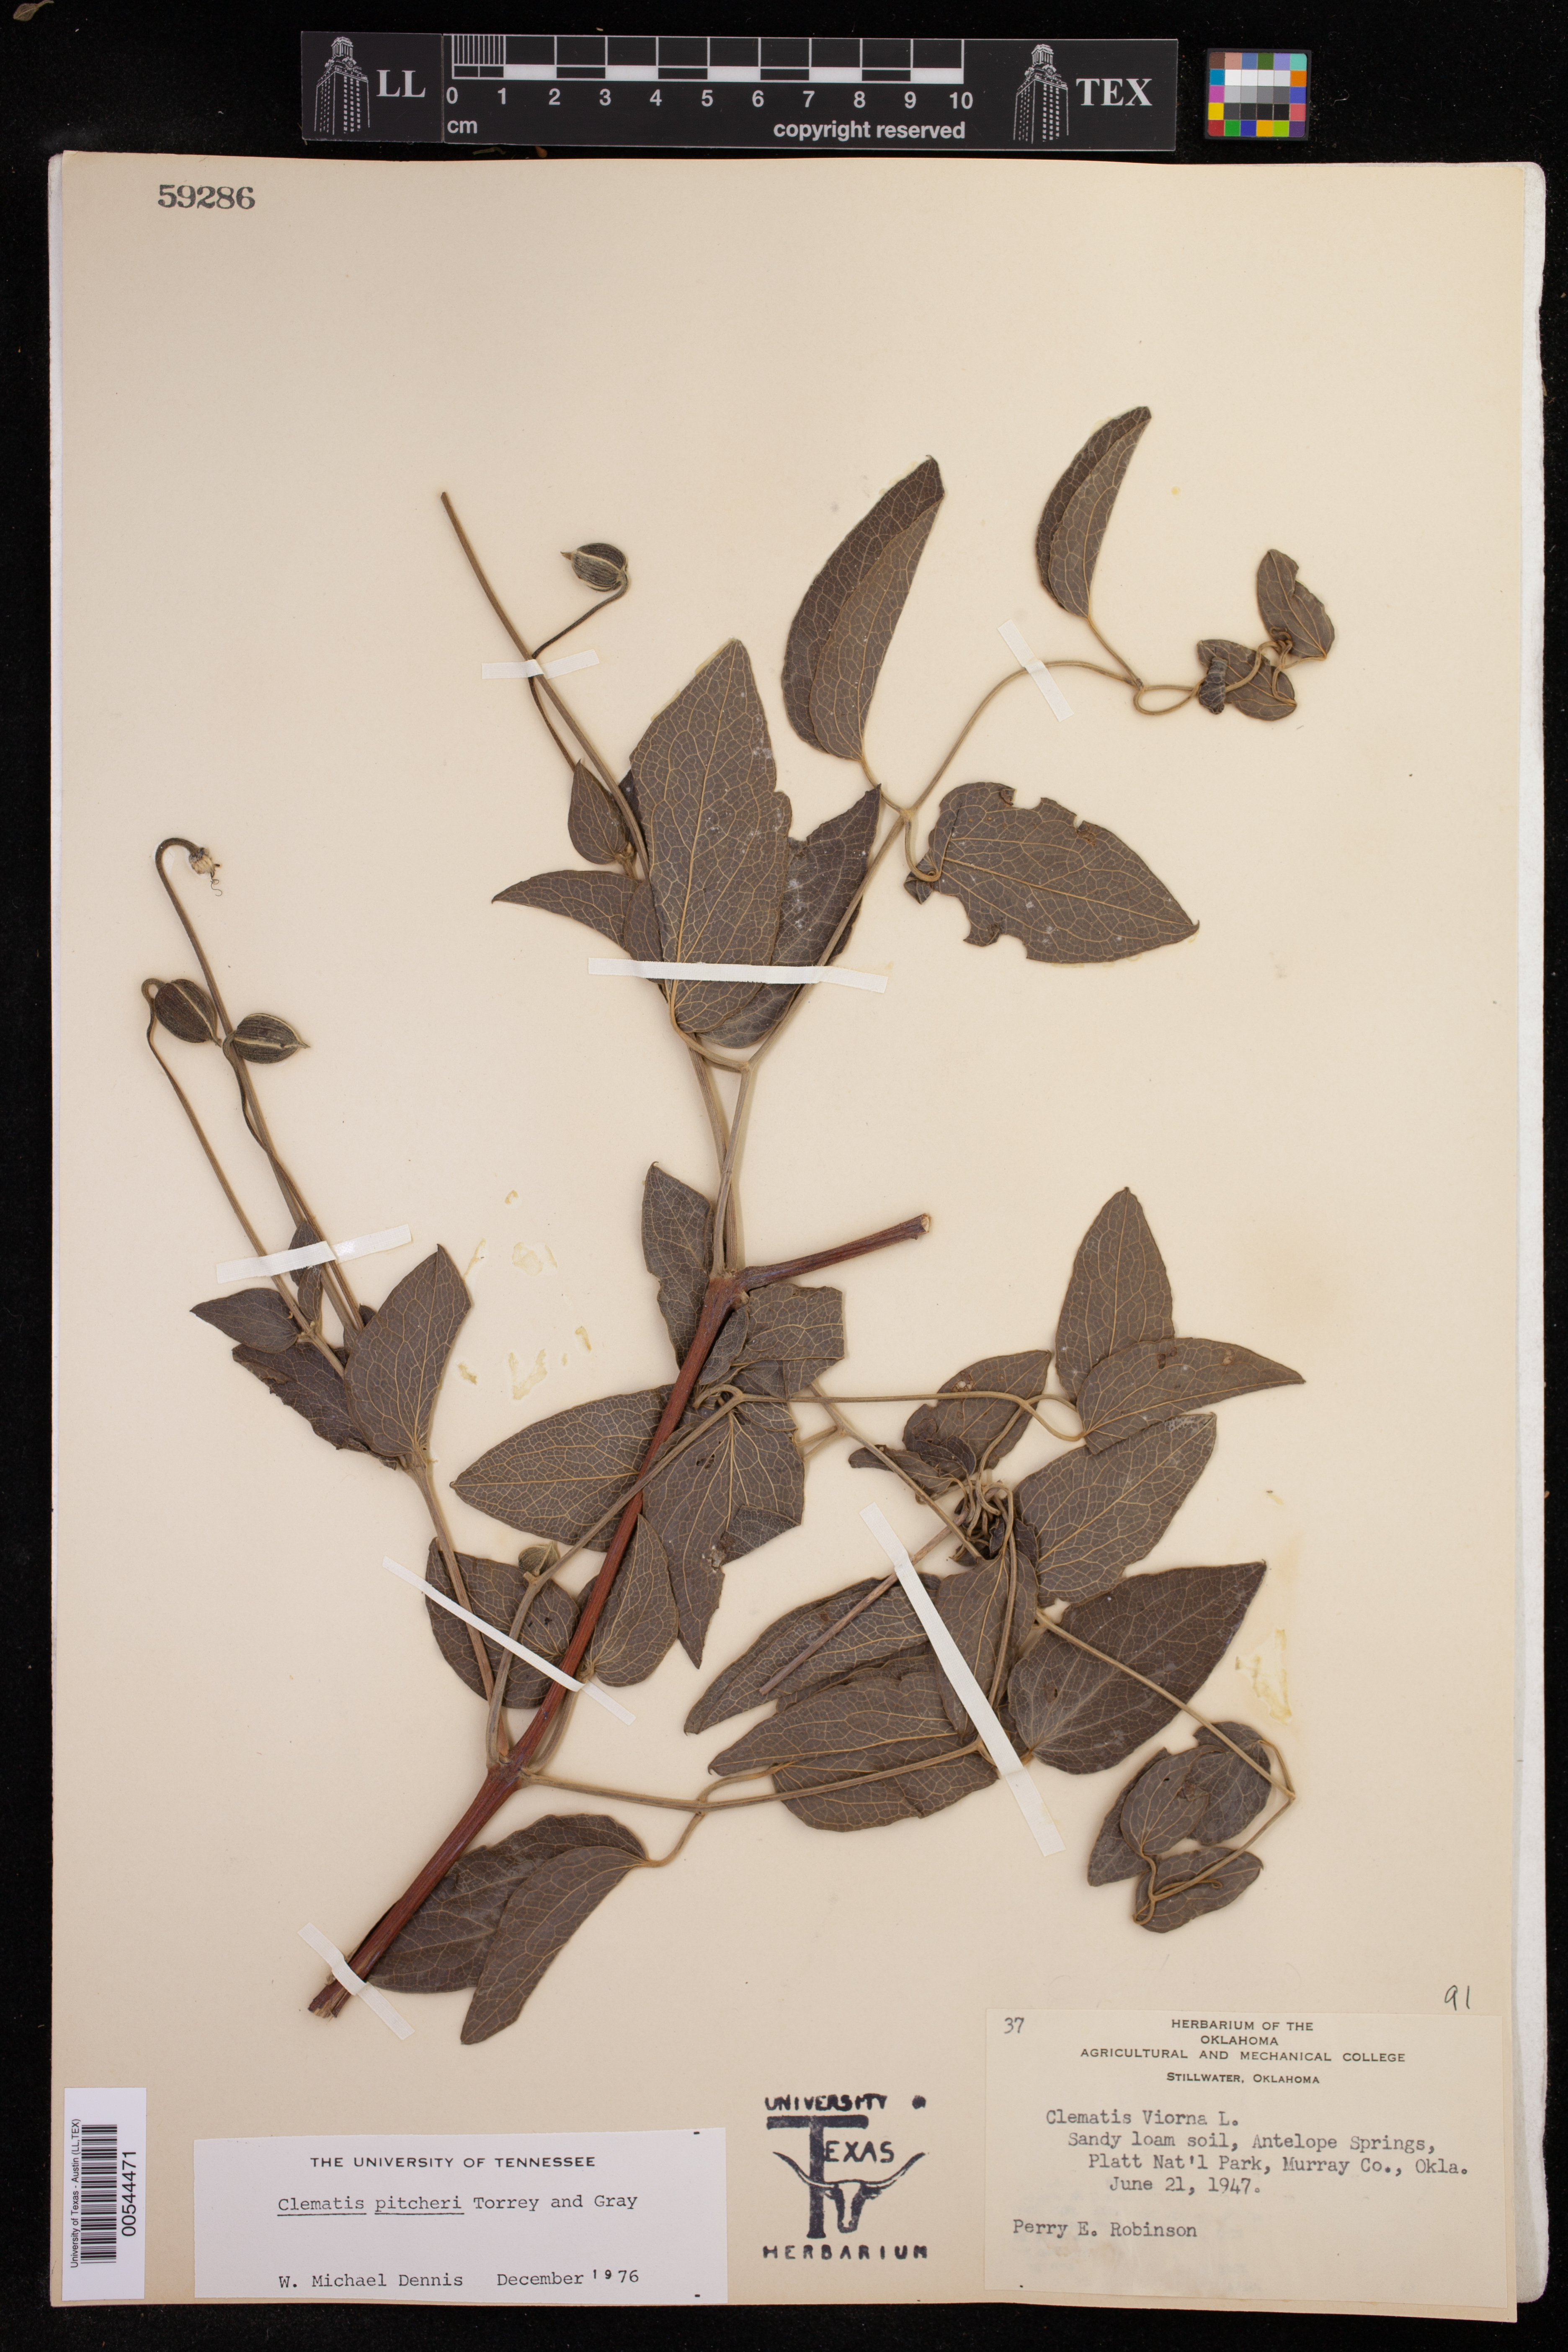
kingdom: Plantae
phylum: Tracheophyta
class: Magnoliopsida
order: Ranunculales
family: Ranunculaceae
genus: Clematis
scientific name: Clematis pitcheri
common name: Bellflower clematis
